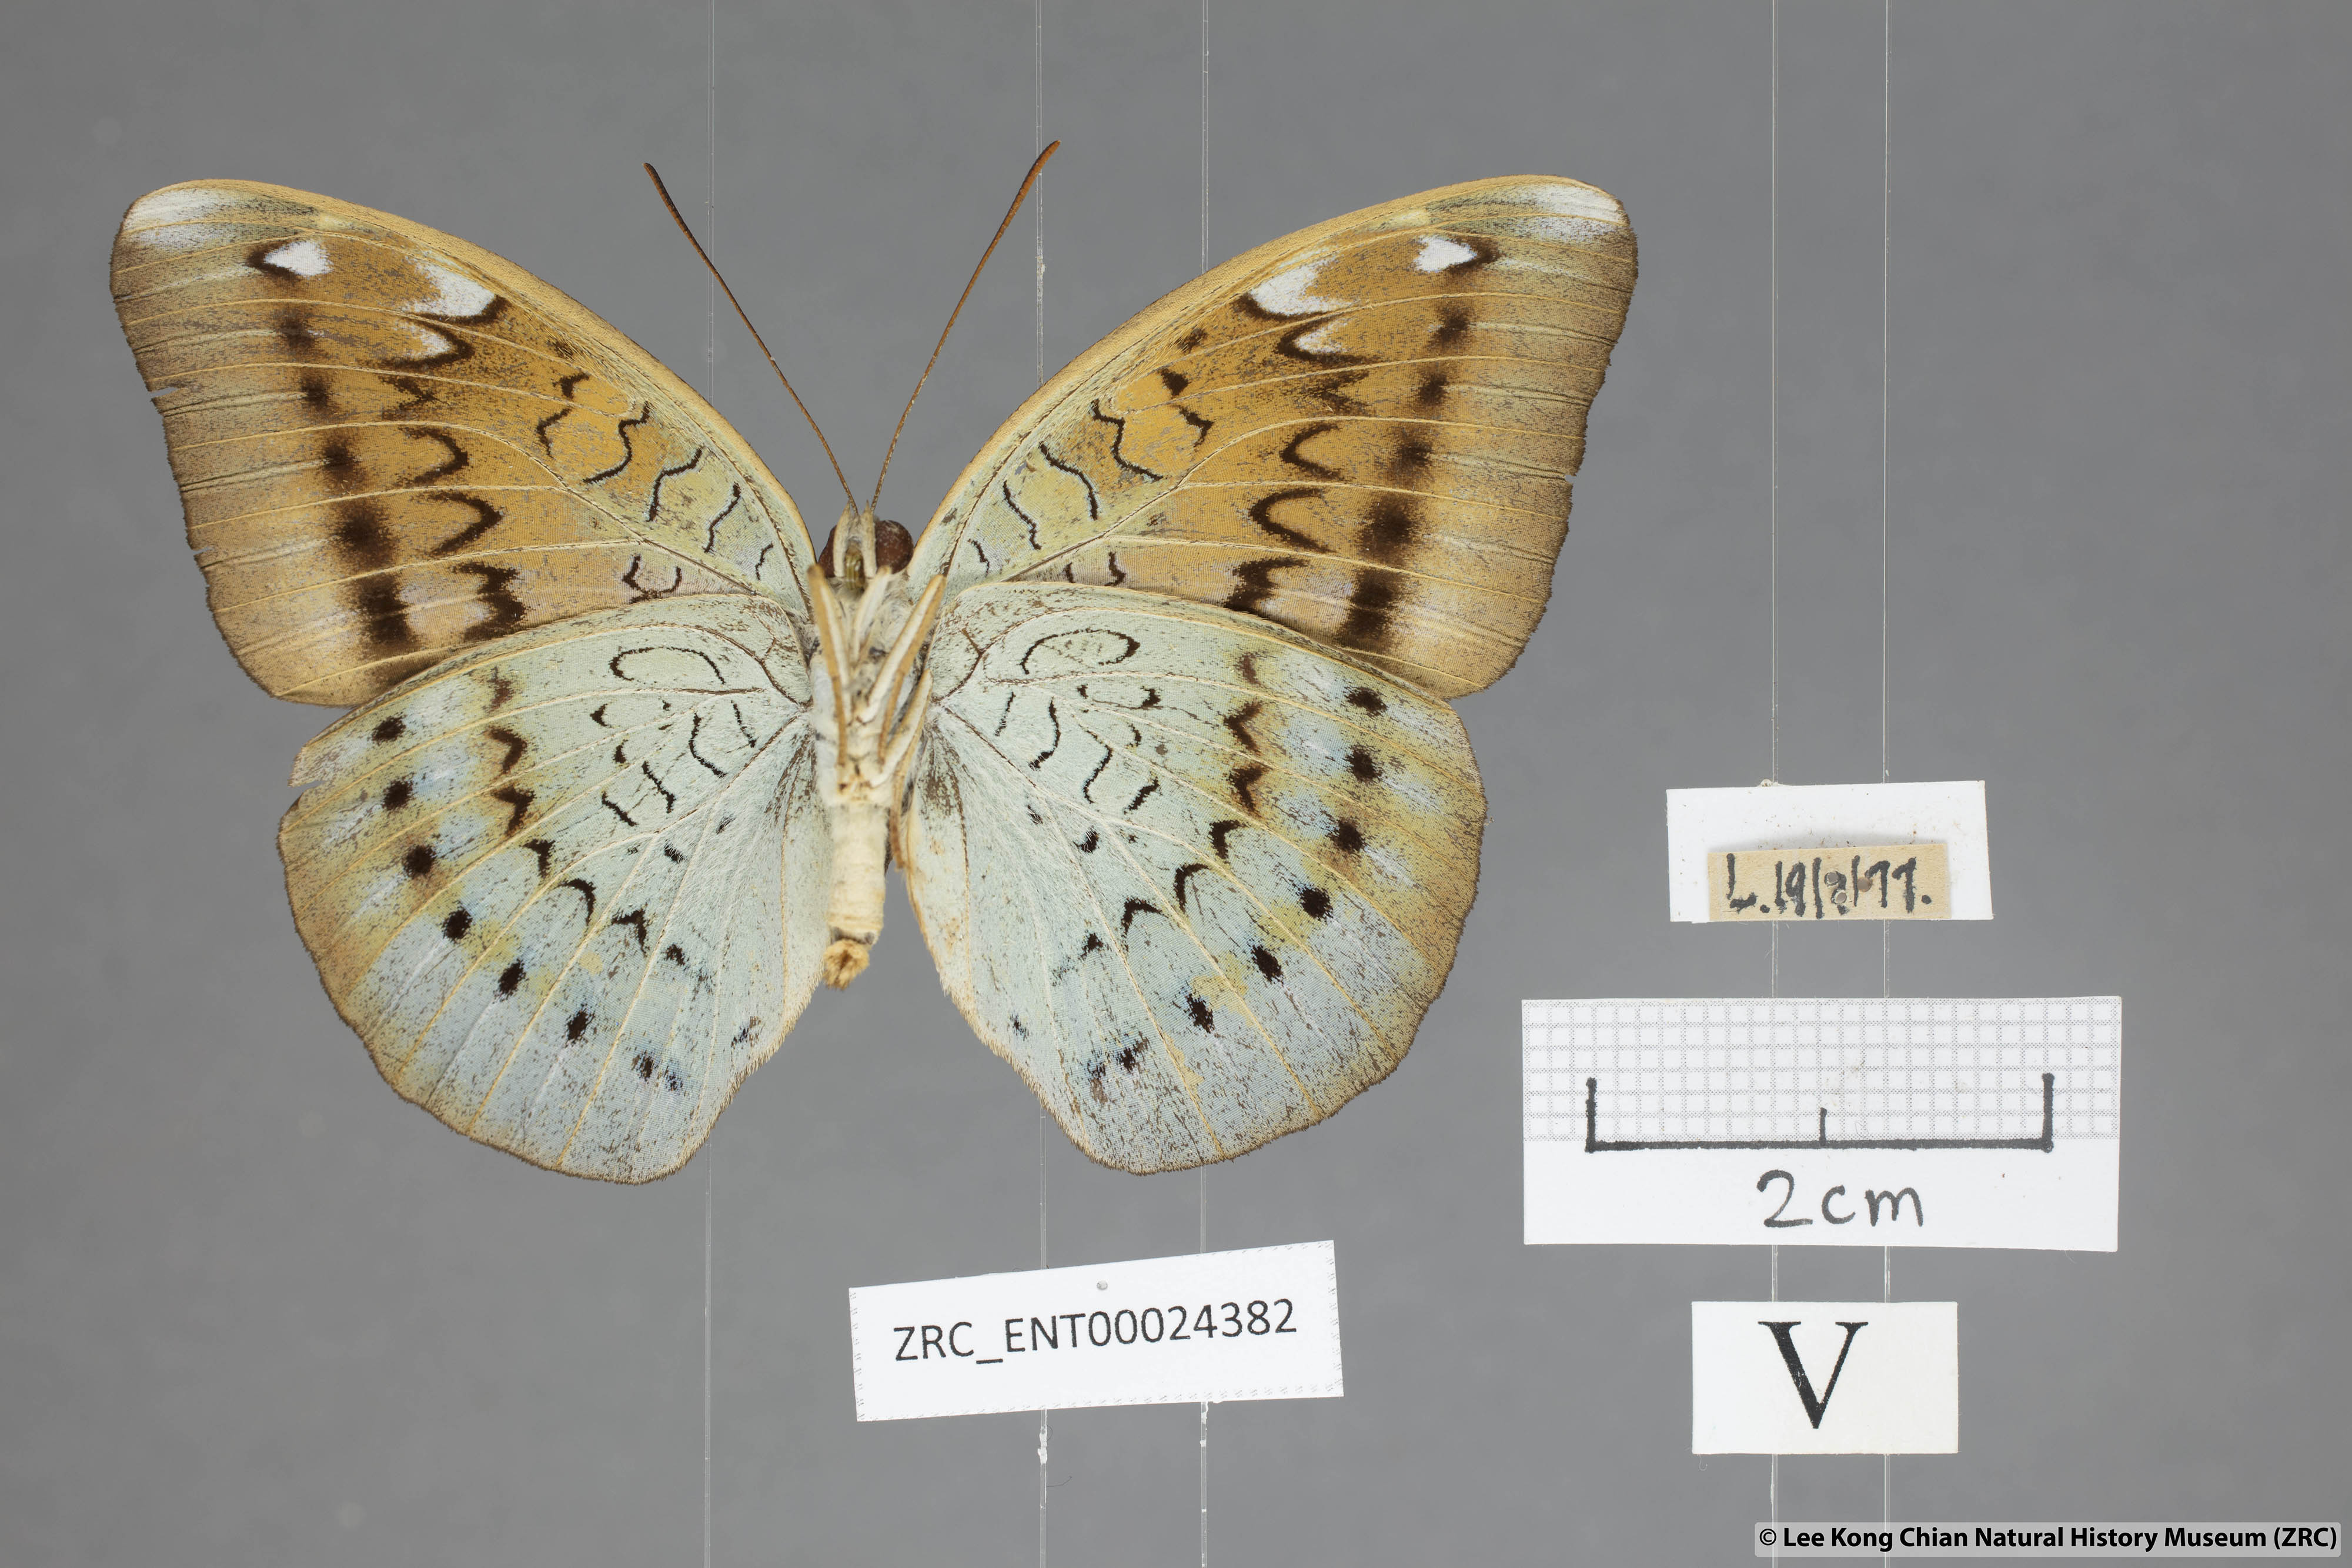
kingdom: Animalia
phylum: Arthropoda
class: Insecta
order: Lepidoptera
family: Nymphalidae
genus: Tanaecia
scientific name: Tanaecia julii
